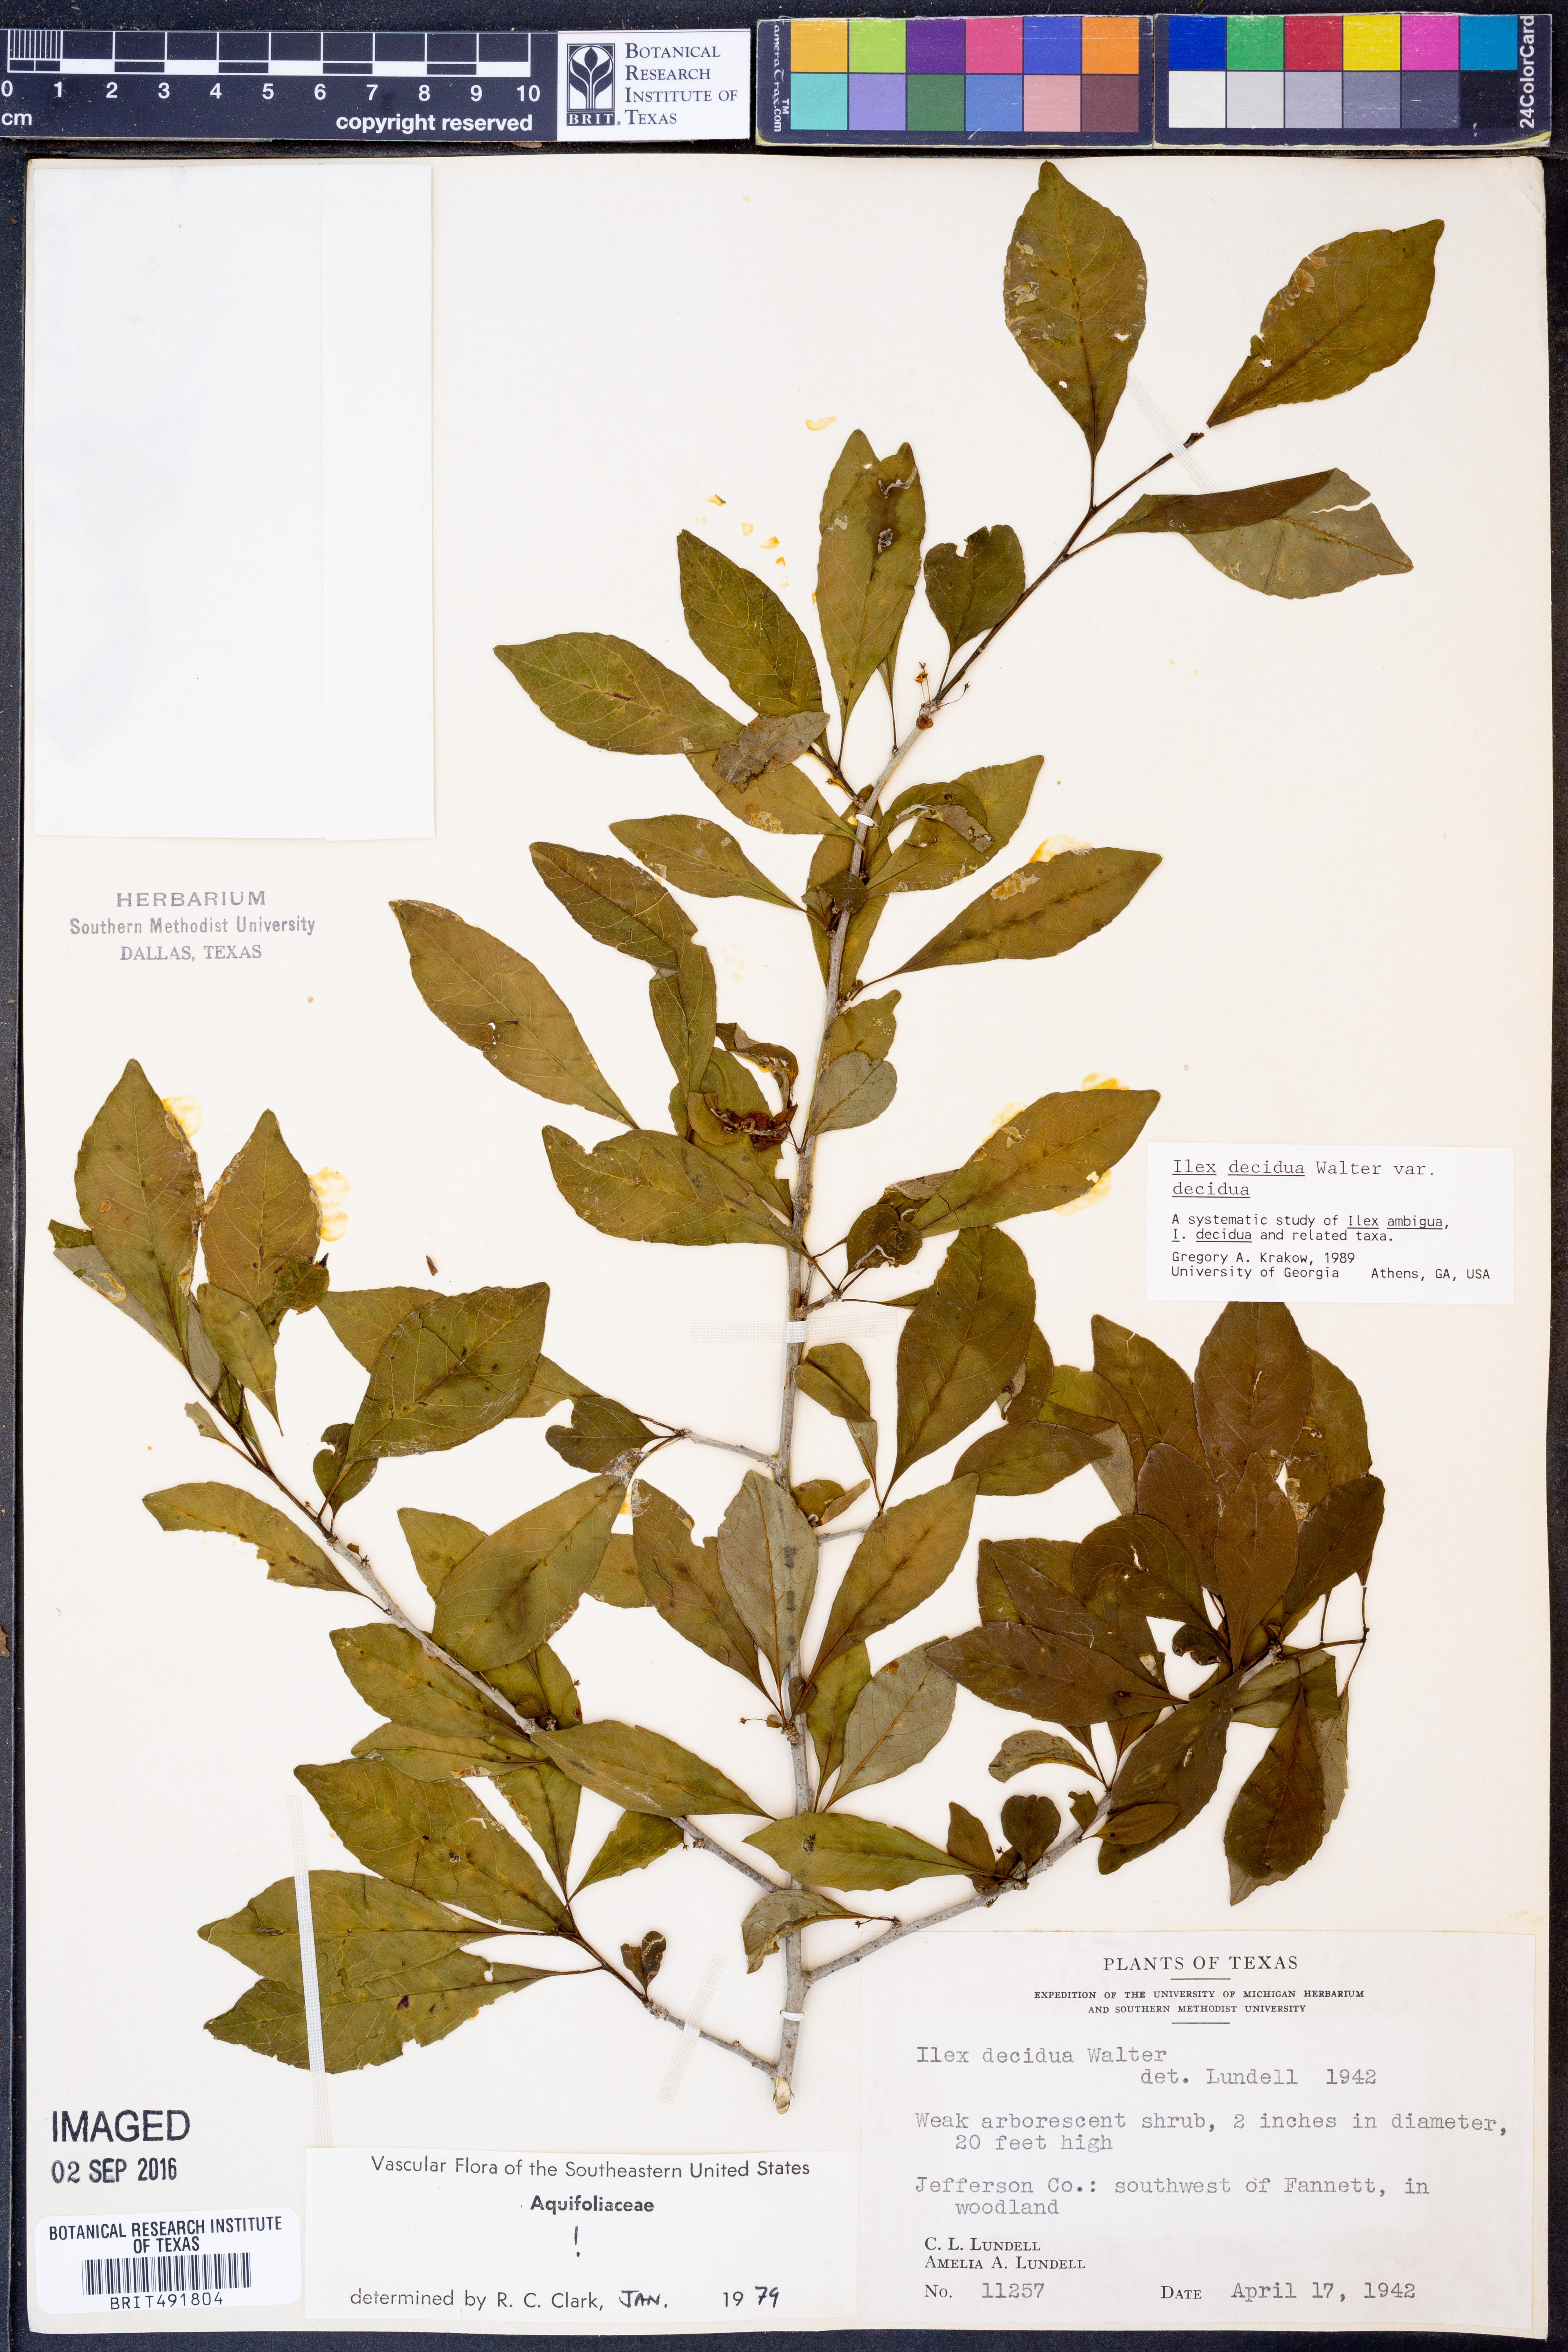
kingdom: Plantae
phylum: Tracheophyta
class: Magnoliopsida
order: Aquifoliales
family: Aquifoliaceae
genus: Ilex
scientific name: Ilex decidua
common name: Possum-haw
